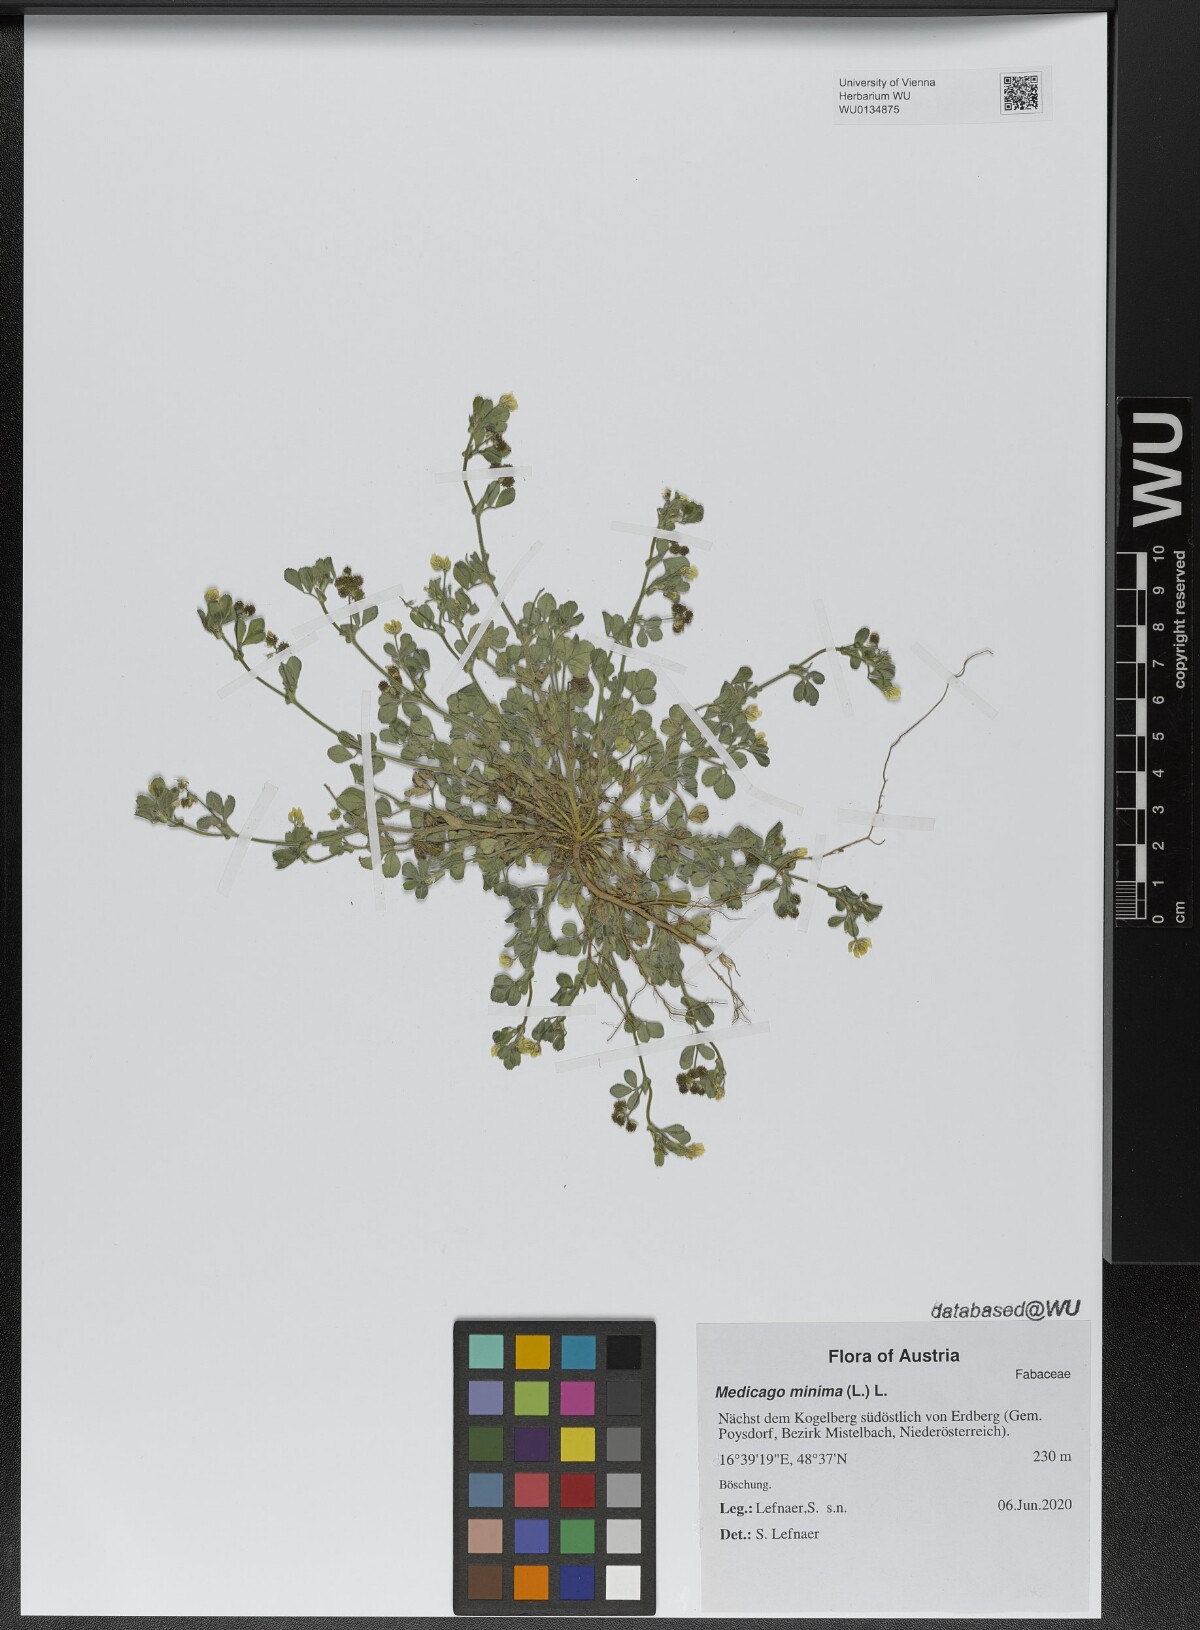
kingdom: Plantae
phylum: Tracheophyta
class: Magnoliopsida
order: Fabales
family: Fabaceae
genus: Medicago
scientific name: Medicago minima
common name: Little bur-clover
